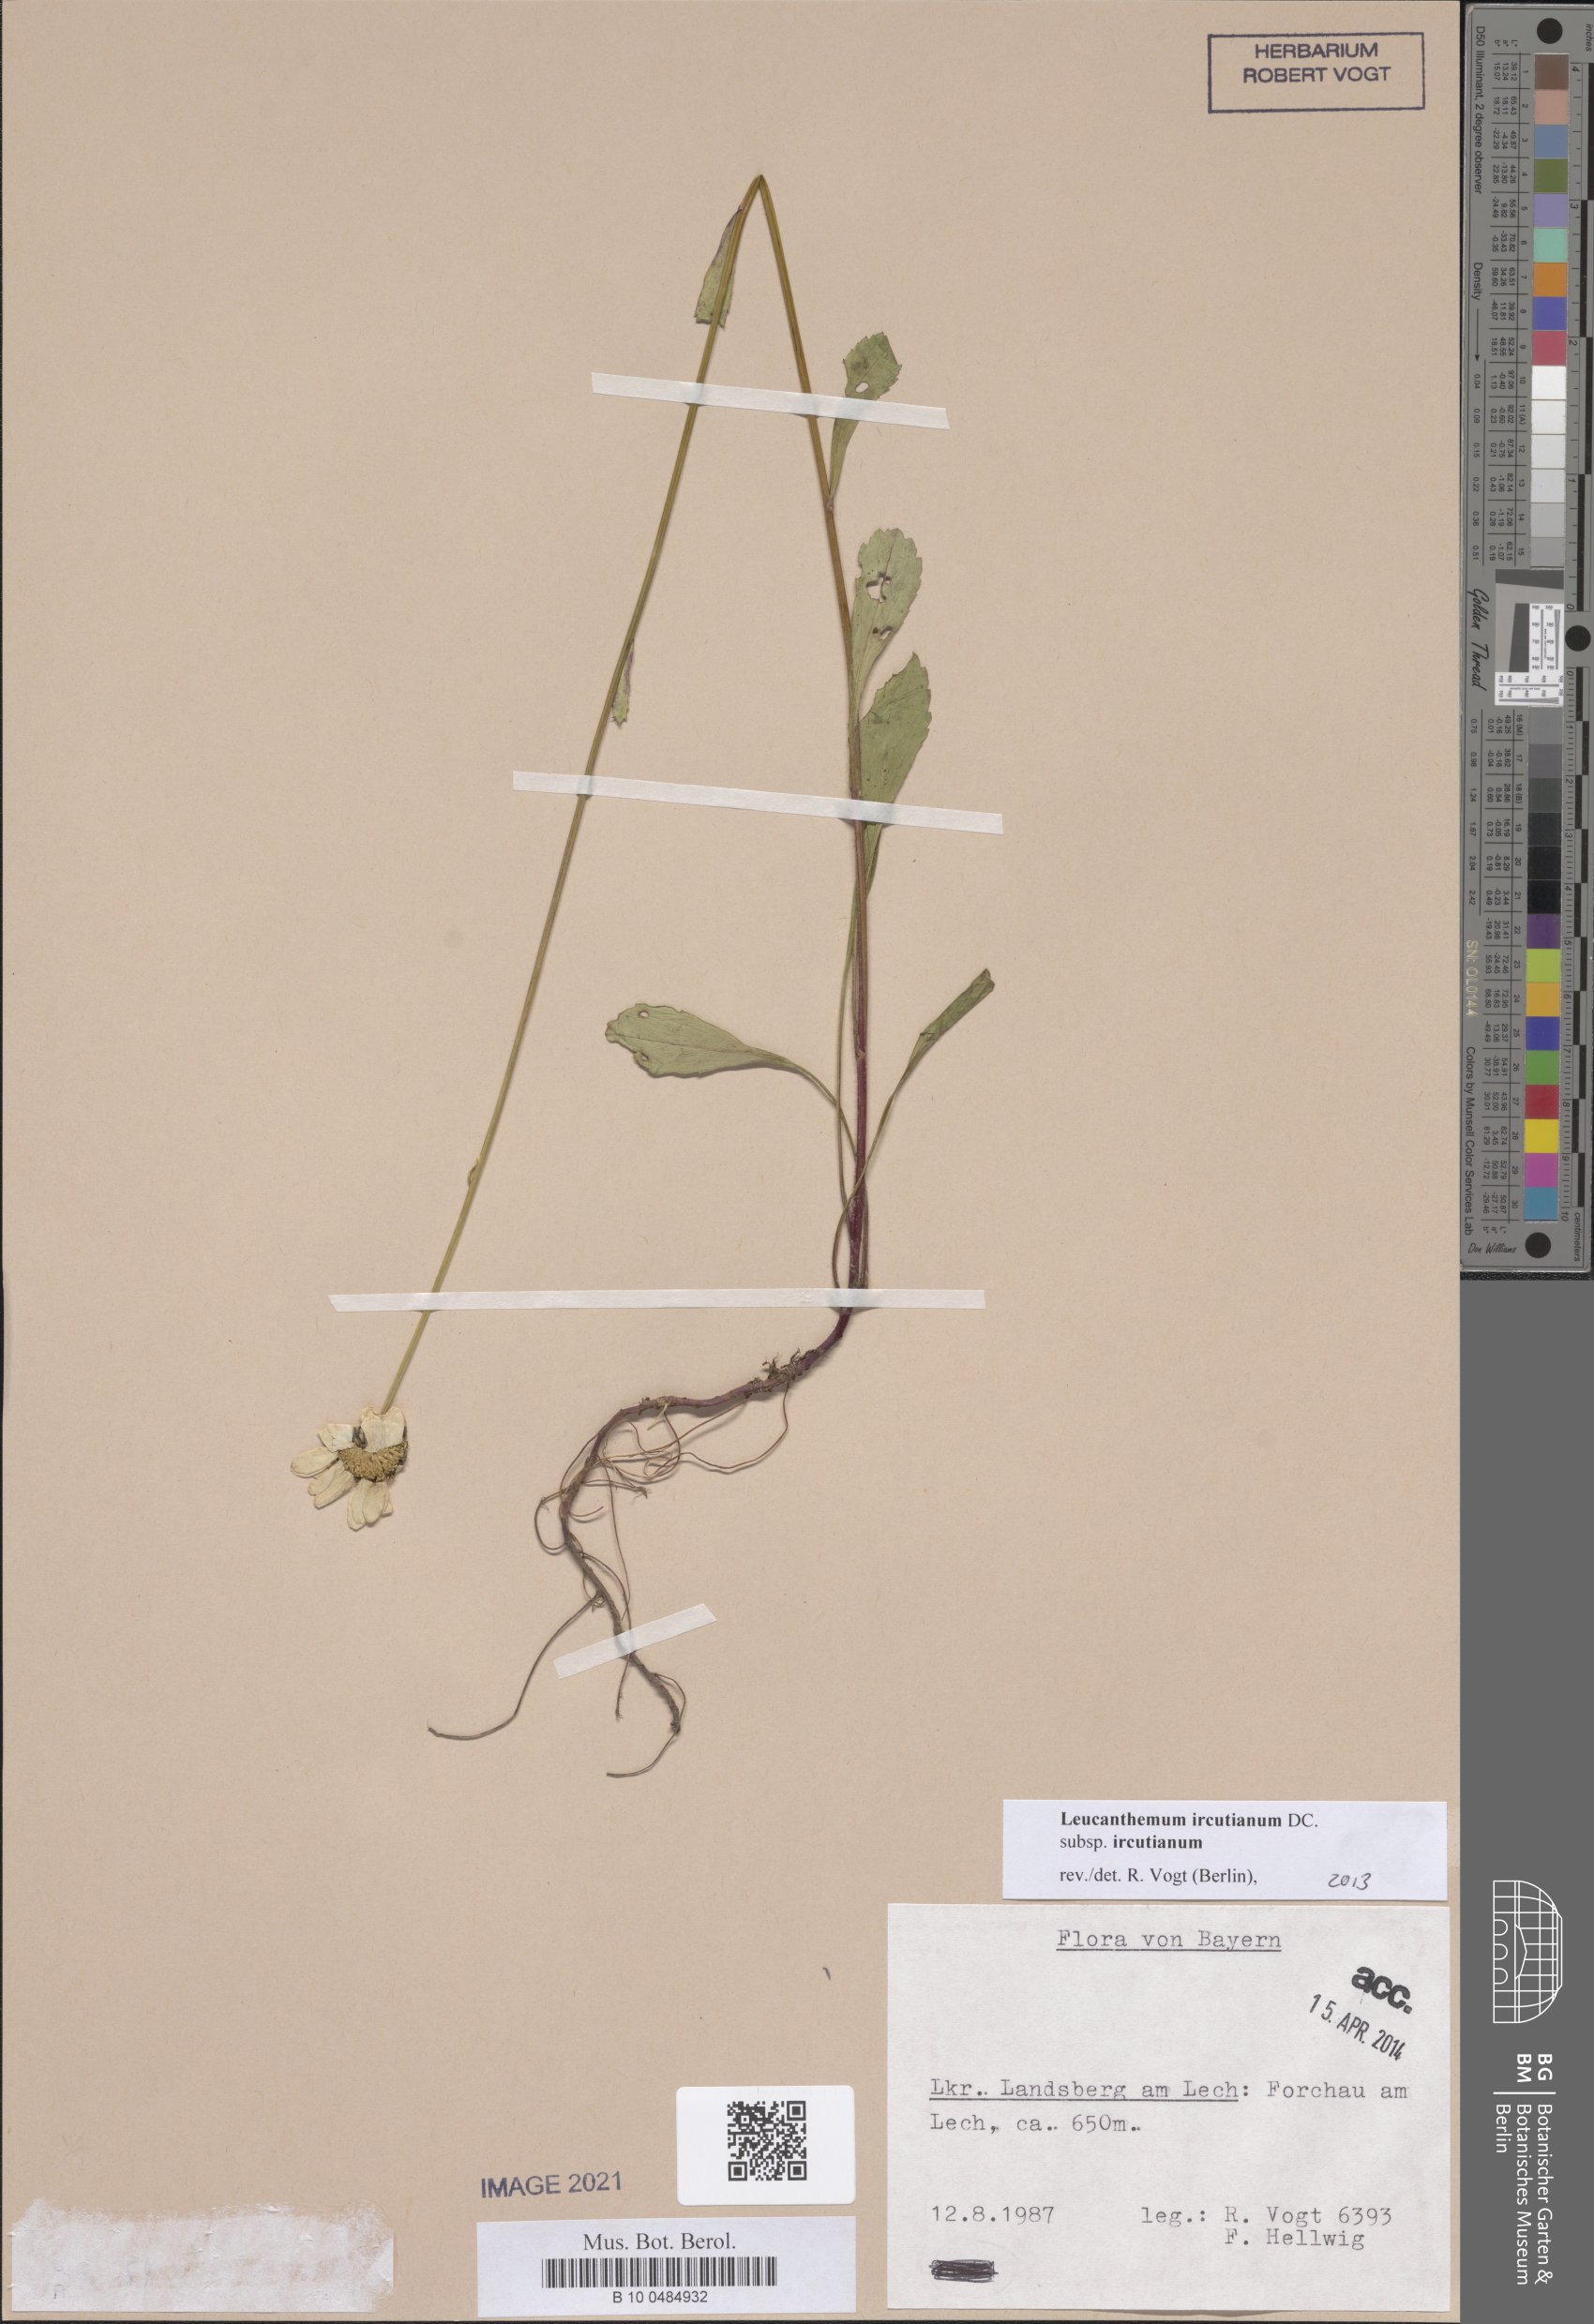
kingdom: Plantae
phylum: Tracheophyta
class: Magnoliopsida
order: Asterales
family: Asteraceae
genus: Leucanthemum
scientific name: Leucanthemum ircutianum
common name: Daisy
